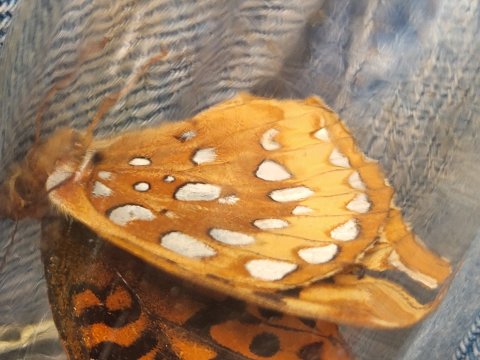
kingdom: Animalia
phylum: Arthropoda
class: Insecta
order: Lepidoptera
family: Nymphalidae
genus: Speyeria
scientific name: Speyeria cybele
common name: Great Spangled Fritillary
